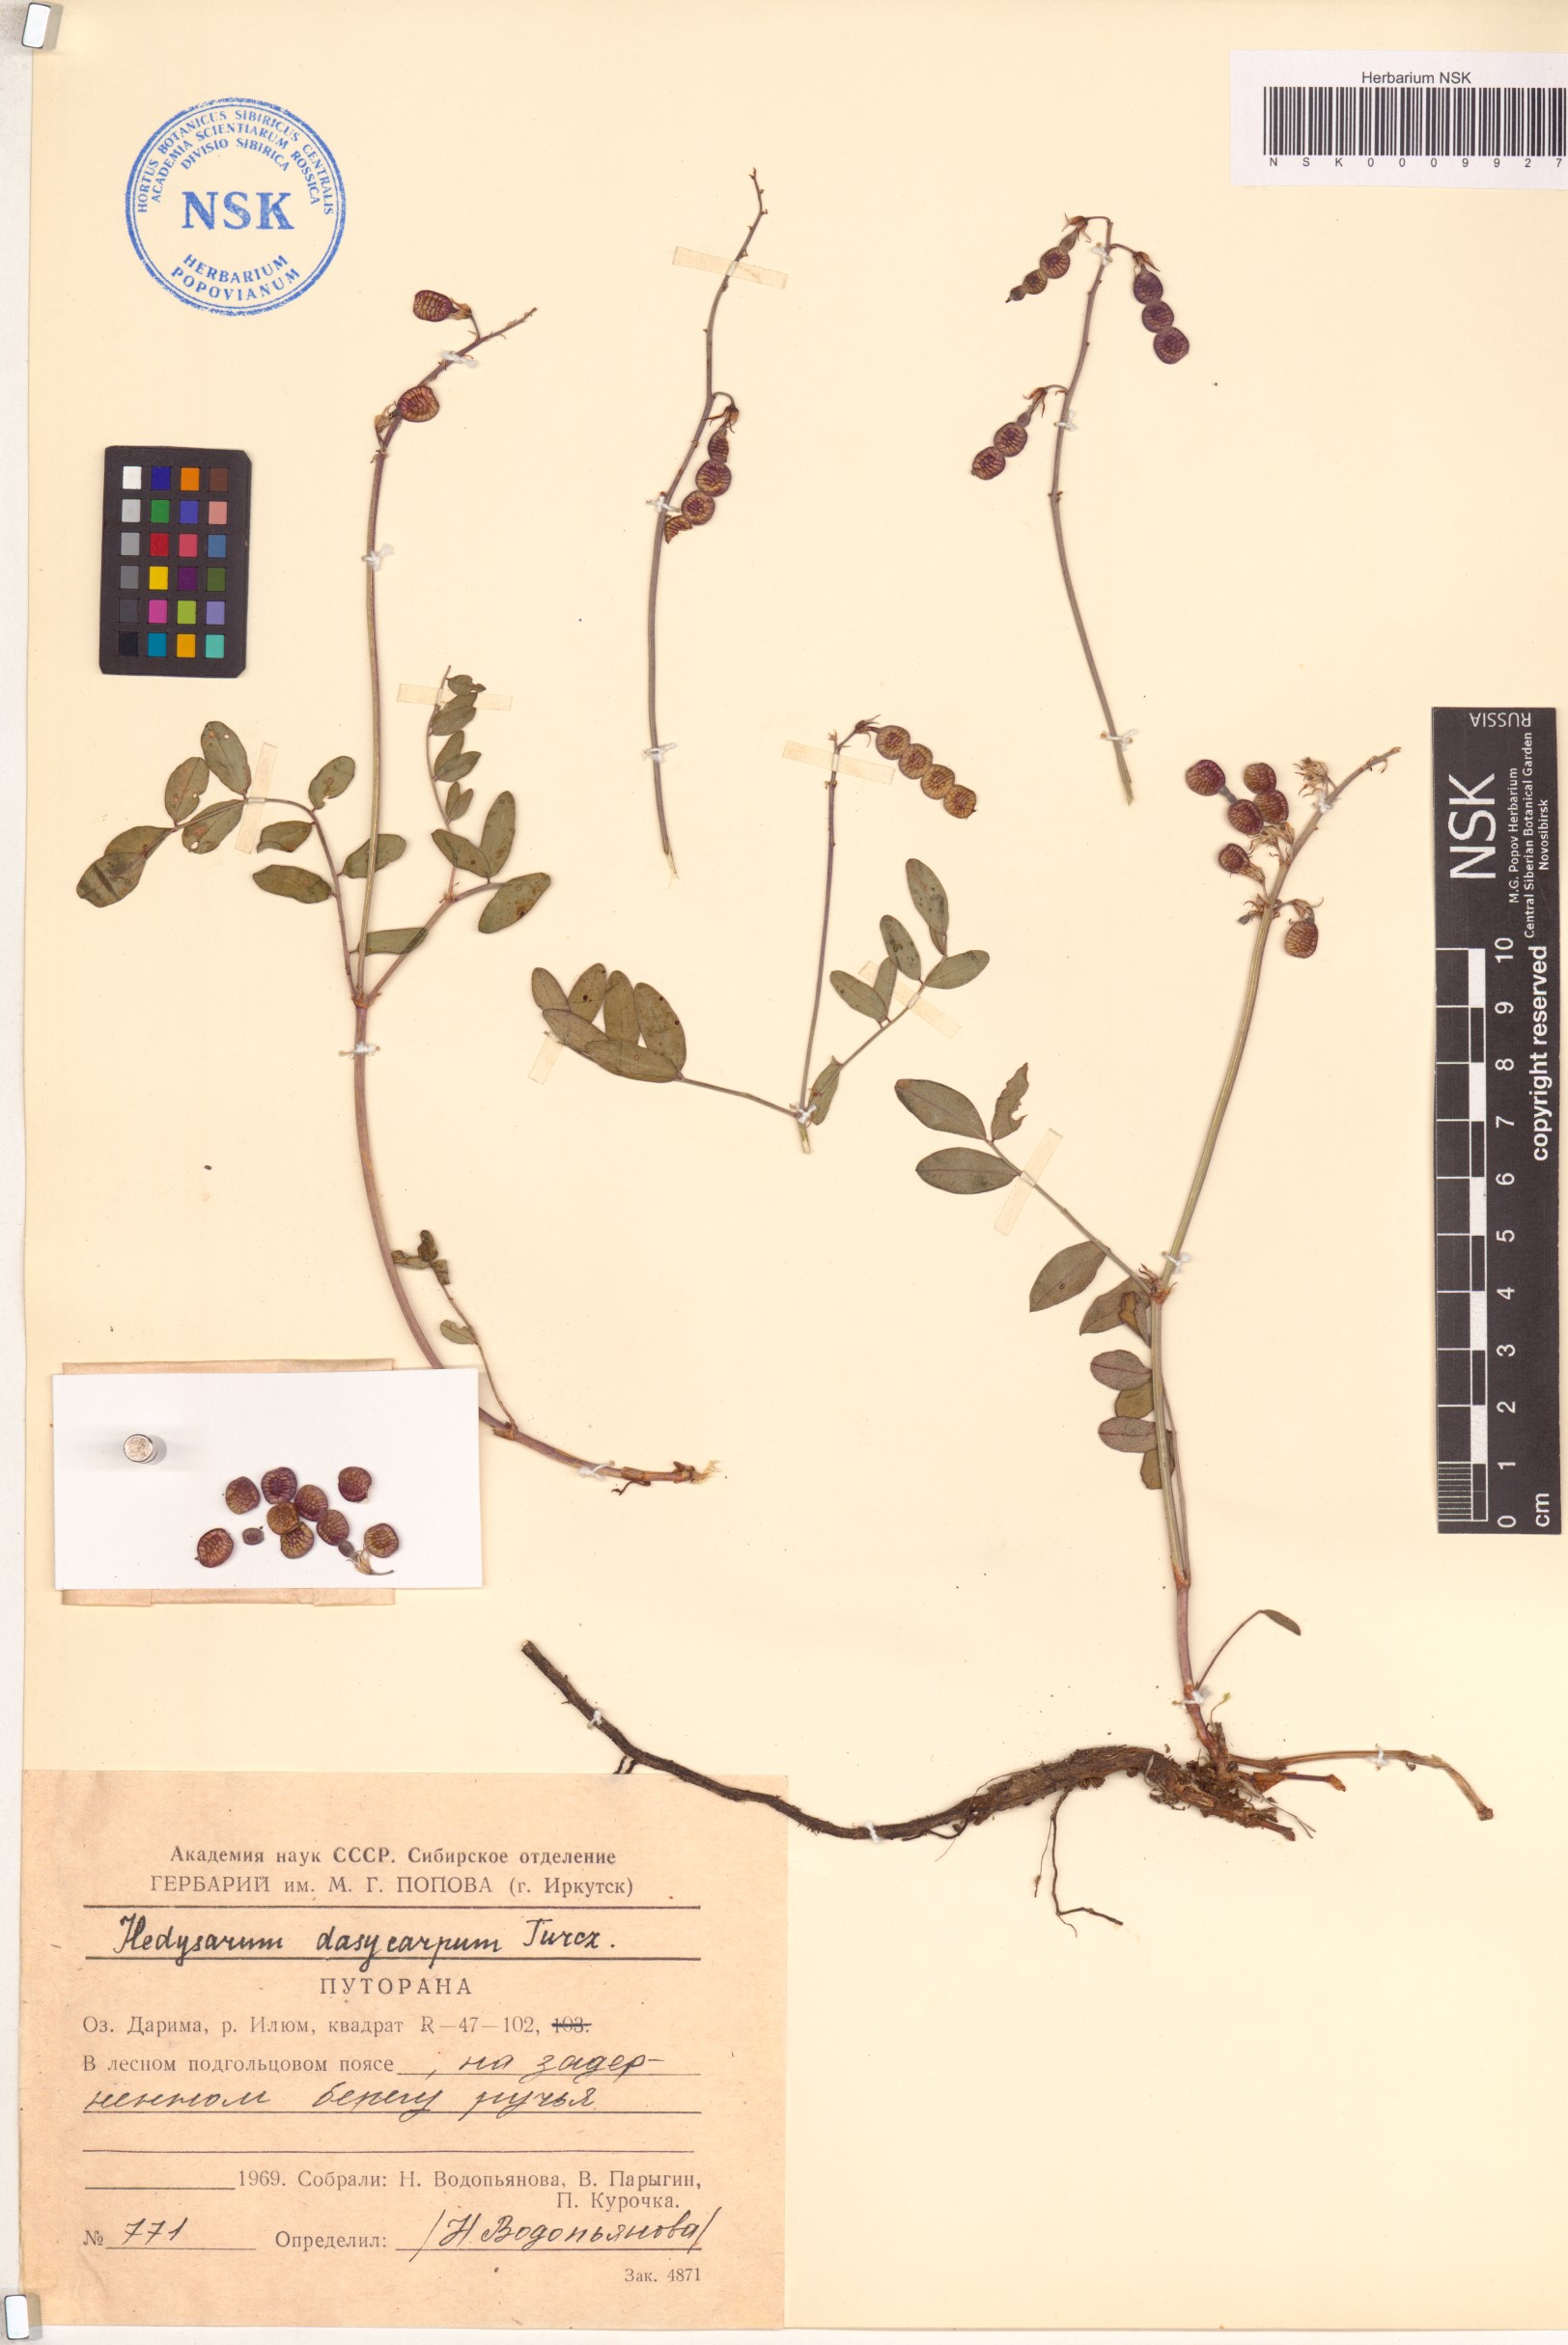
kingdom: Plantae
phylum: Tracheophyta
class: Magnoliopsida
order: Fabales
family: Fabaceae
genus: Hedysarum
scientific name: Hedysarum dasycarpum
